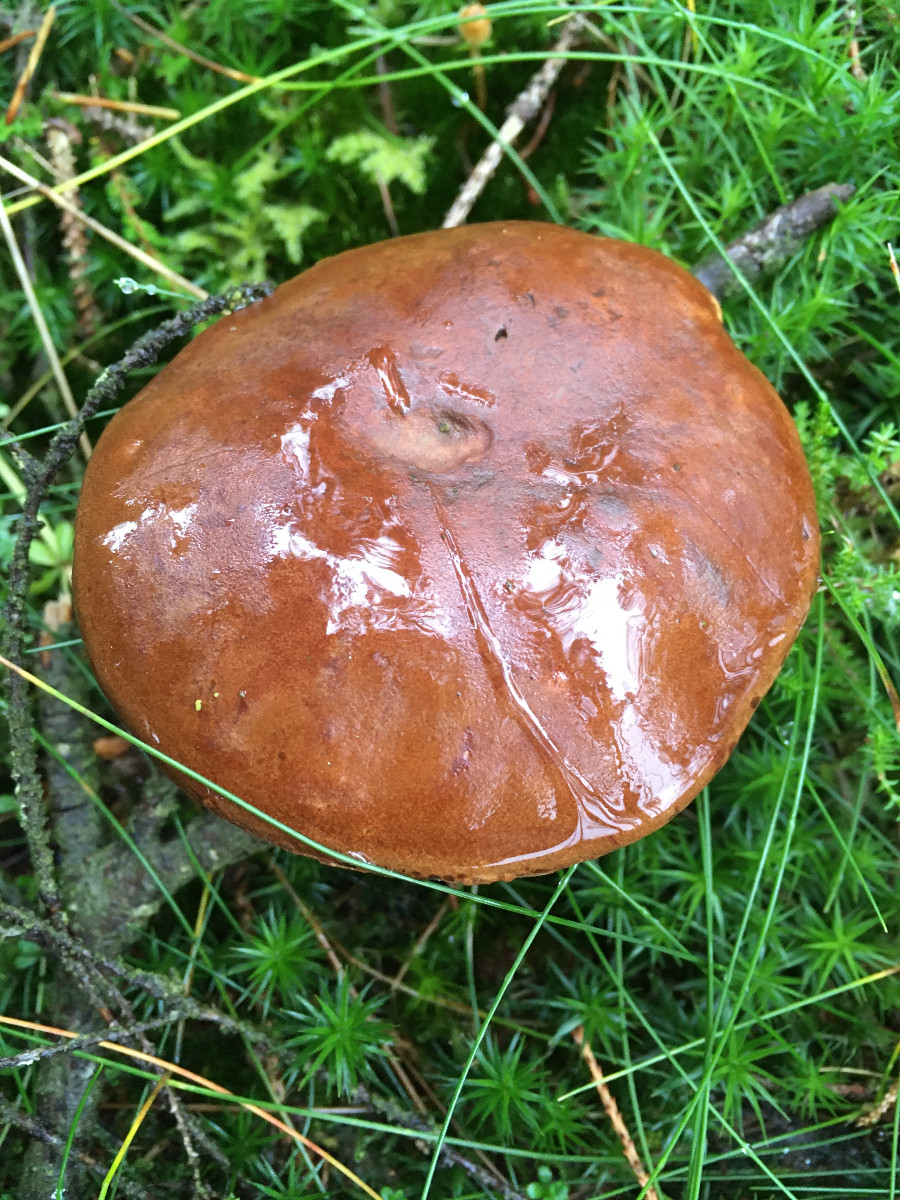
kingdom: Fungi
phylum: Basidiomycota
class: Agaricomycetes
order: Boletales
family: Boletaceae
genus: Imleria
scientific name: Imleria badia
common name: brunstokket rørhat
